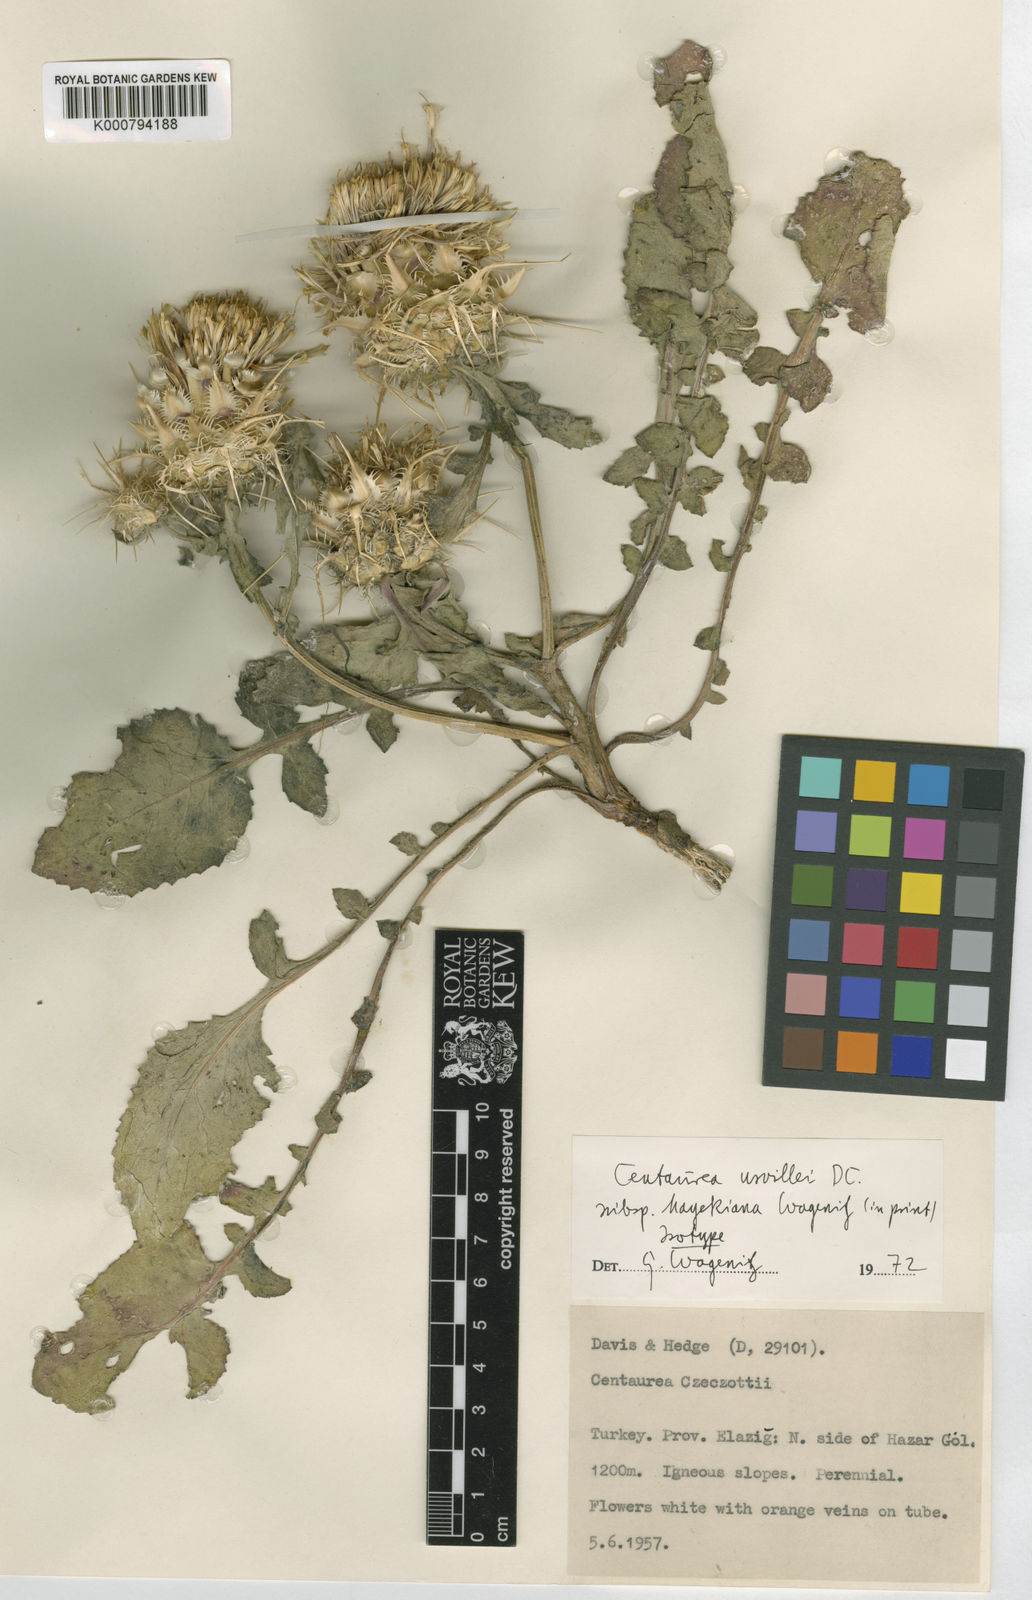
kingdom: Plantae
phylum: Tracheophyta
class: Magnoliopsida
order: Asterales
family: Asteraceae
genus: Centaurea
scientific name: Centaurea urvillei
